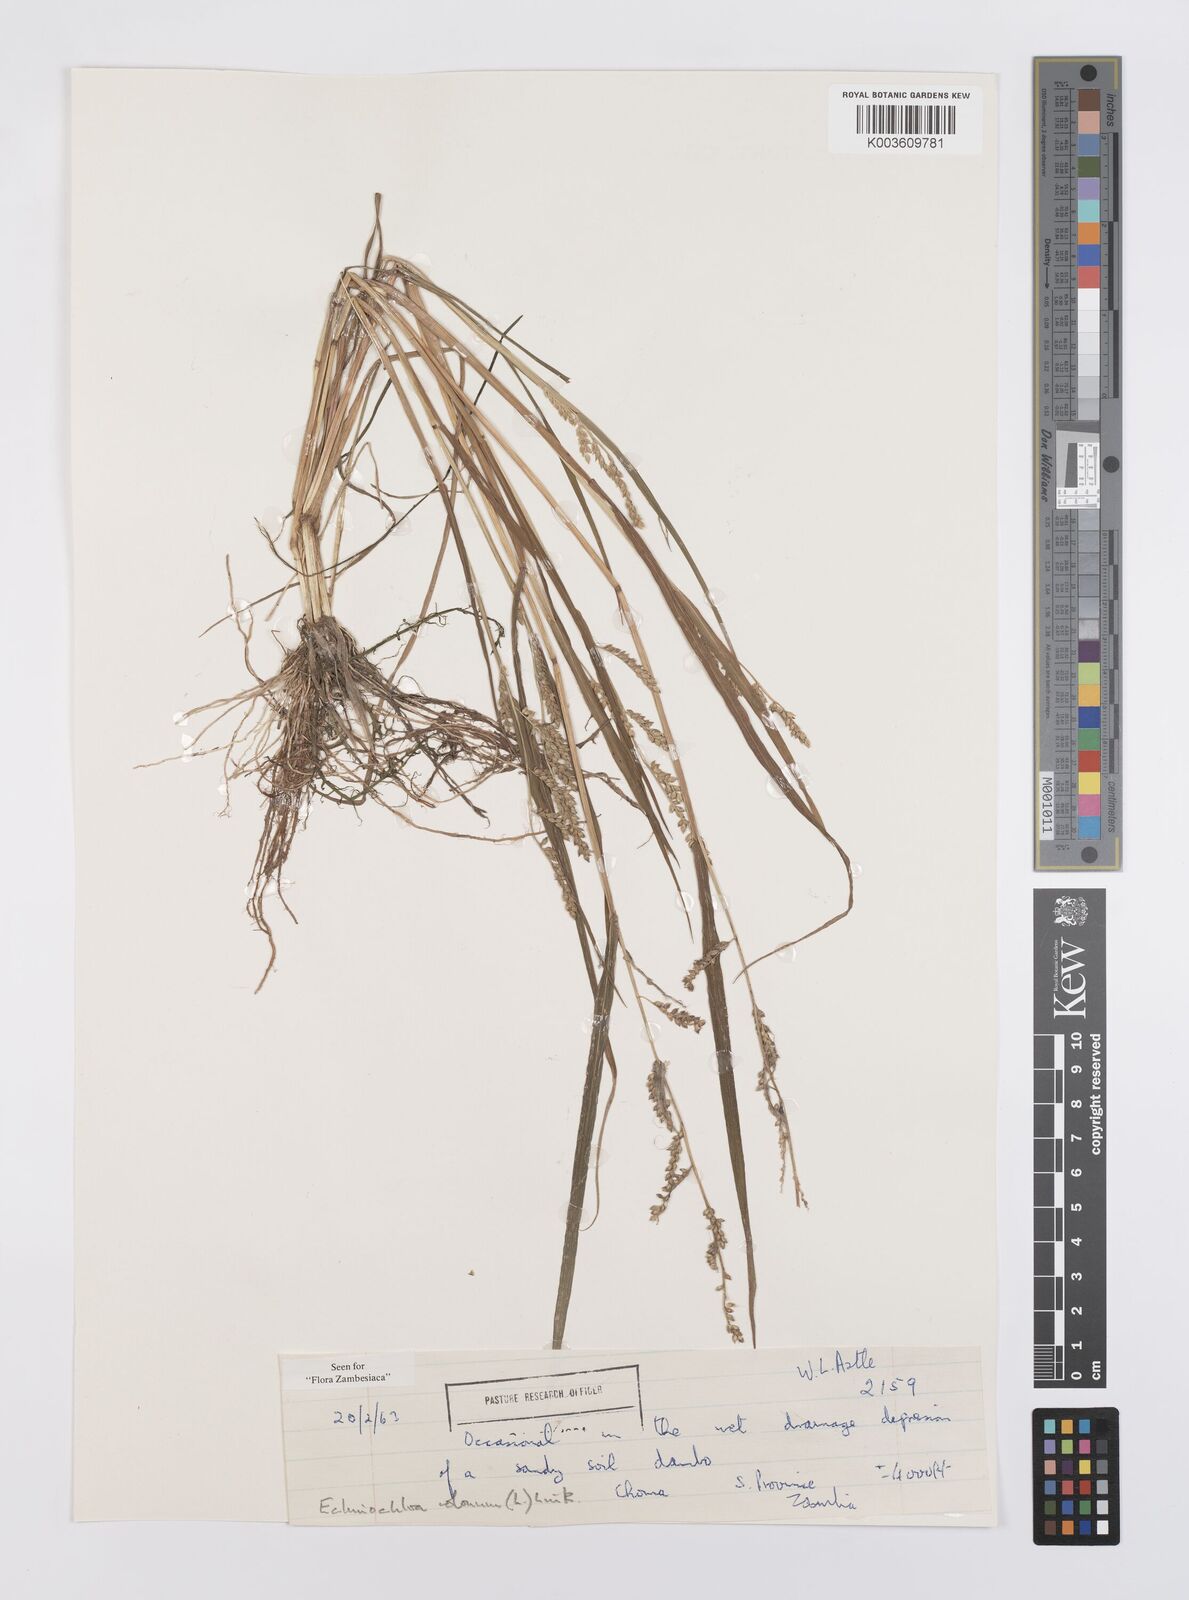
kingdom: Plantae
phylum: Tracheophyta
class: Liliopsida
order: Poales
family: Poaceae
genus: Echinochloa
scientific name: Echinochloa colonum
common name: Jungle rice
